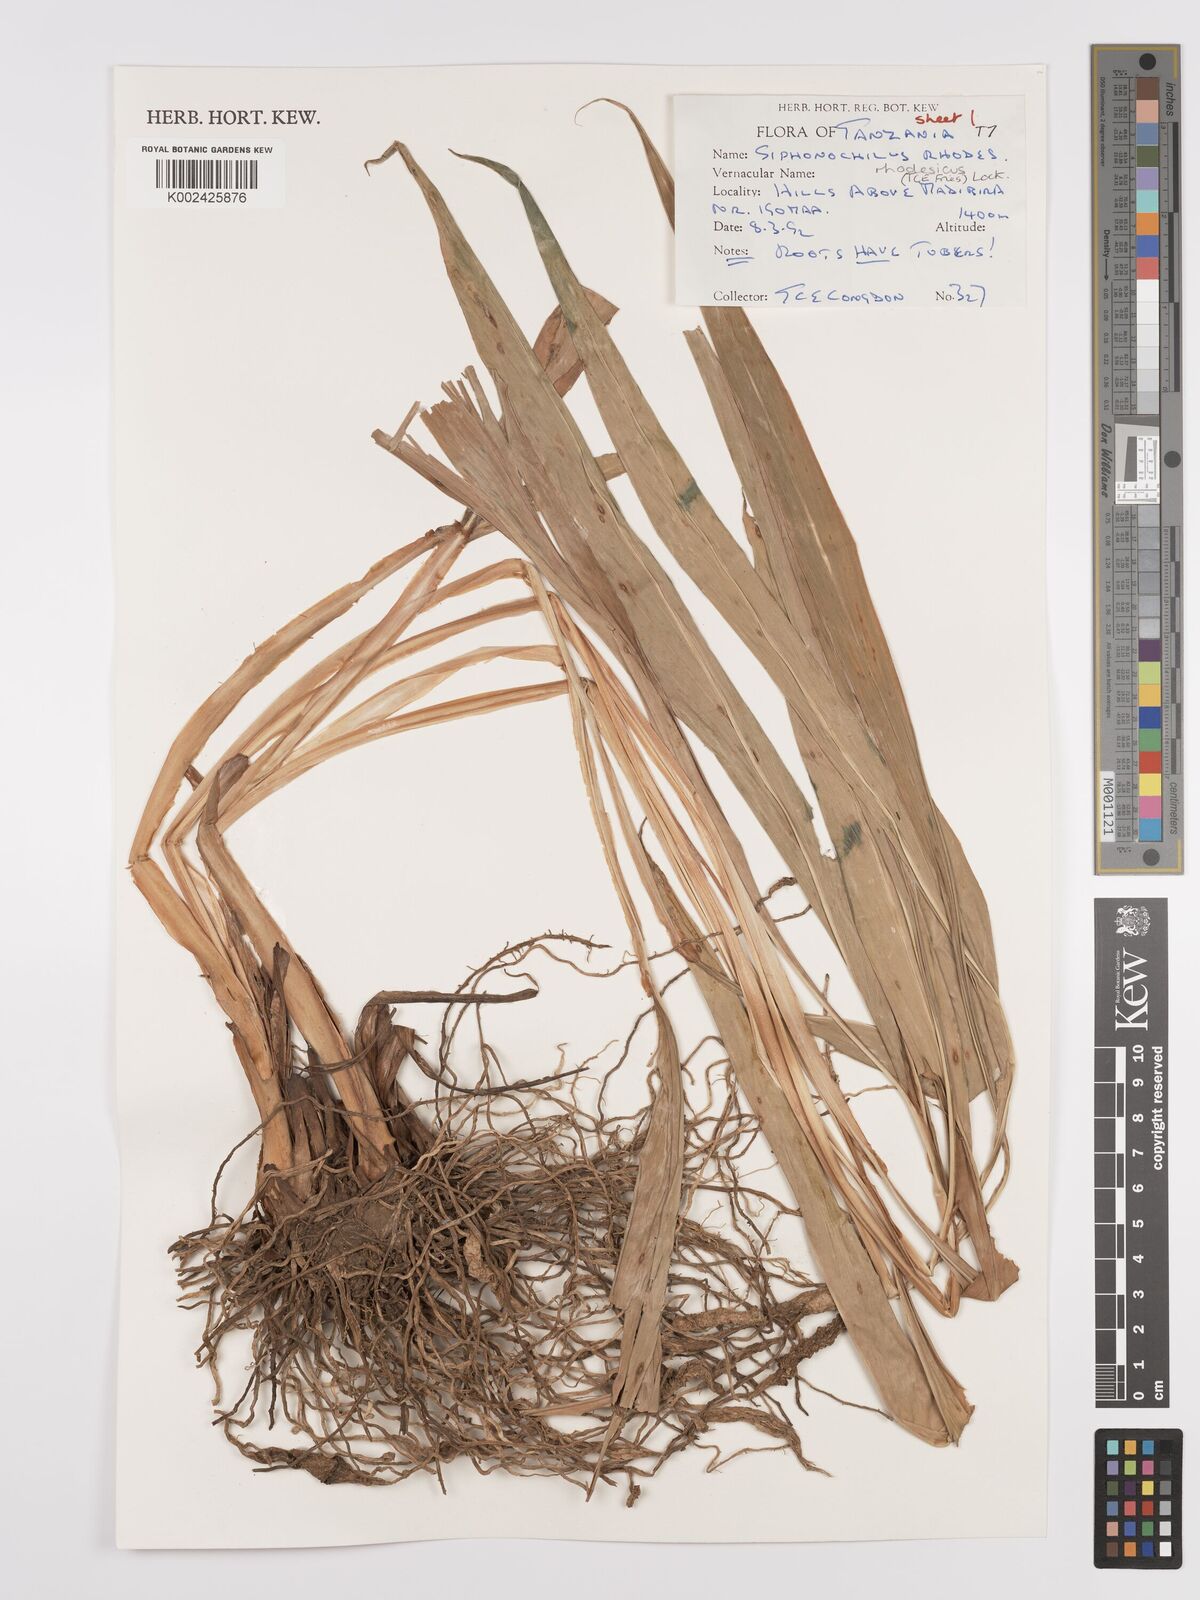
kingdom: Plantae
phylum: Tracheophyta
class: Liliopsida
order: Zingiberales
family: Zingiberaceae
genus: Siphonochilus
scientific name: Siphonochilus rhodesicus
